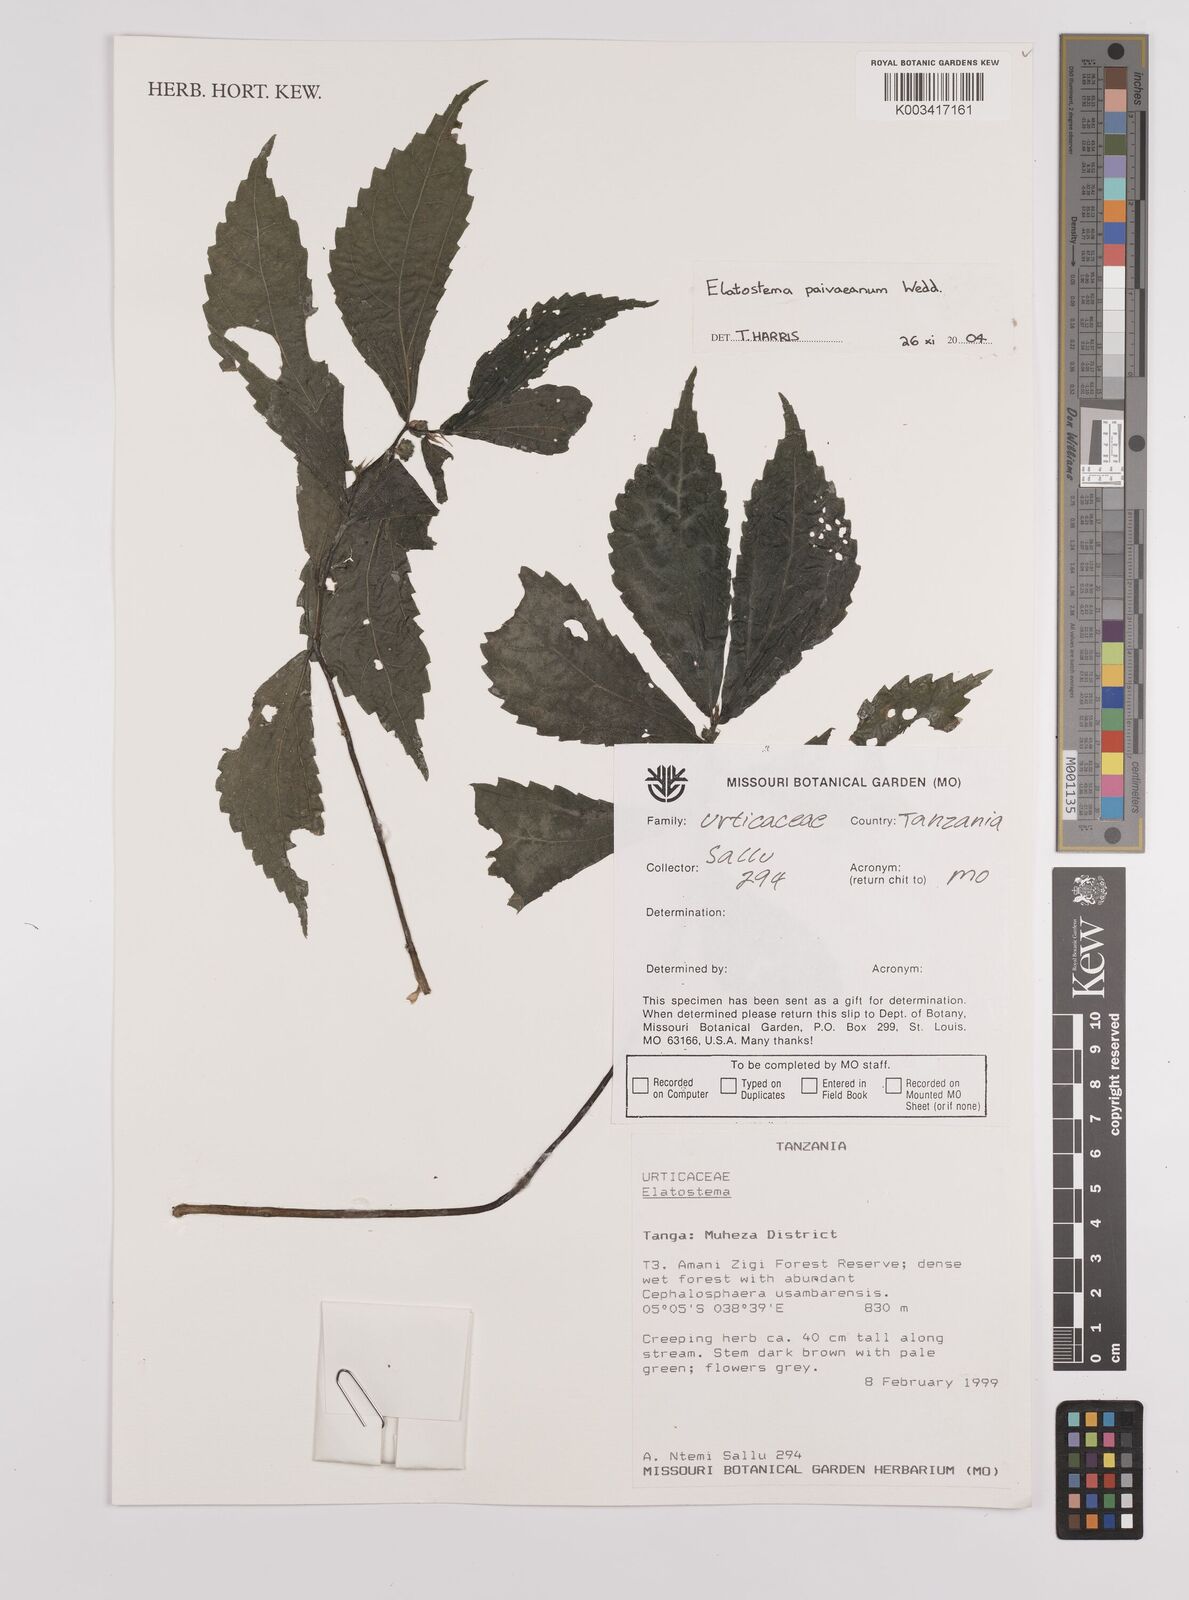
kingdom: Plantae
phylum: Tracheophyta
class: Magnoliopsida
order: Rosales
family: Urticaceae
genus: Elatostema
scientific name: Elatostema paivaeanum
